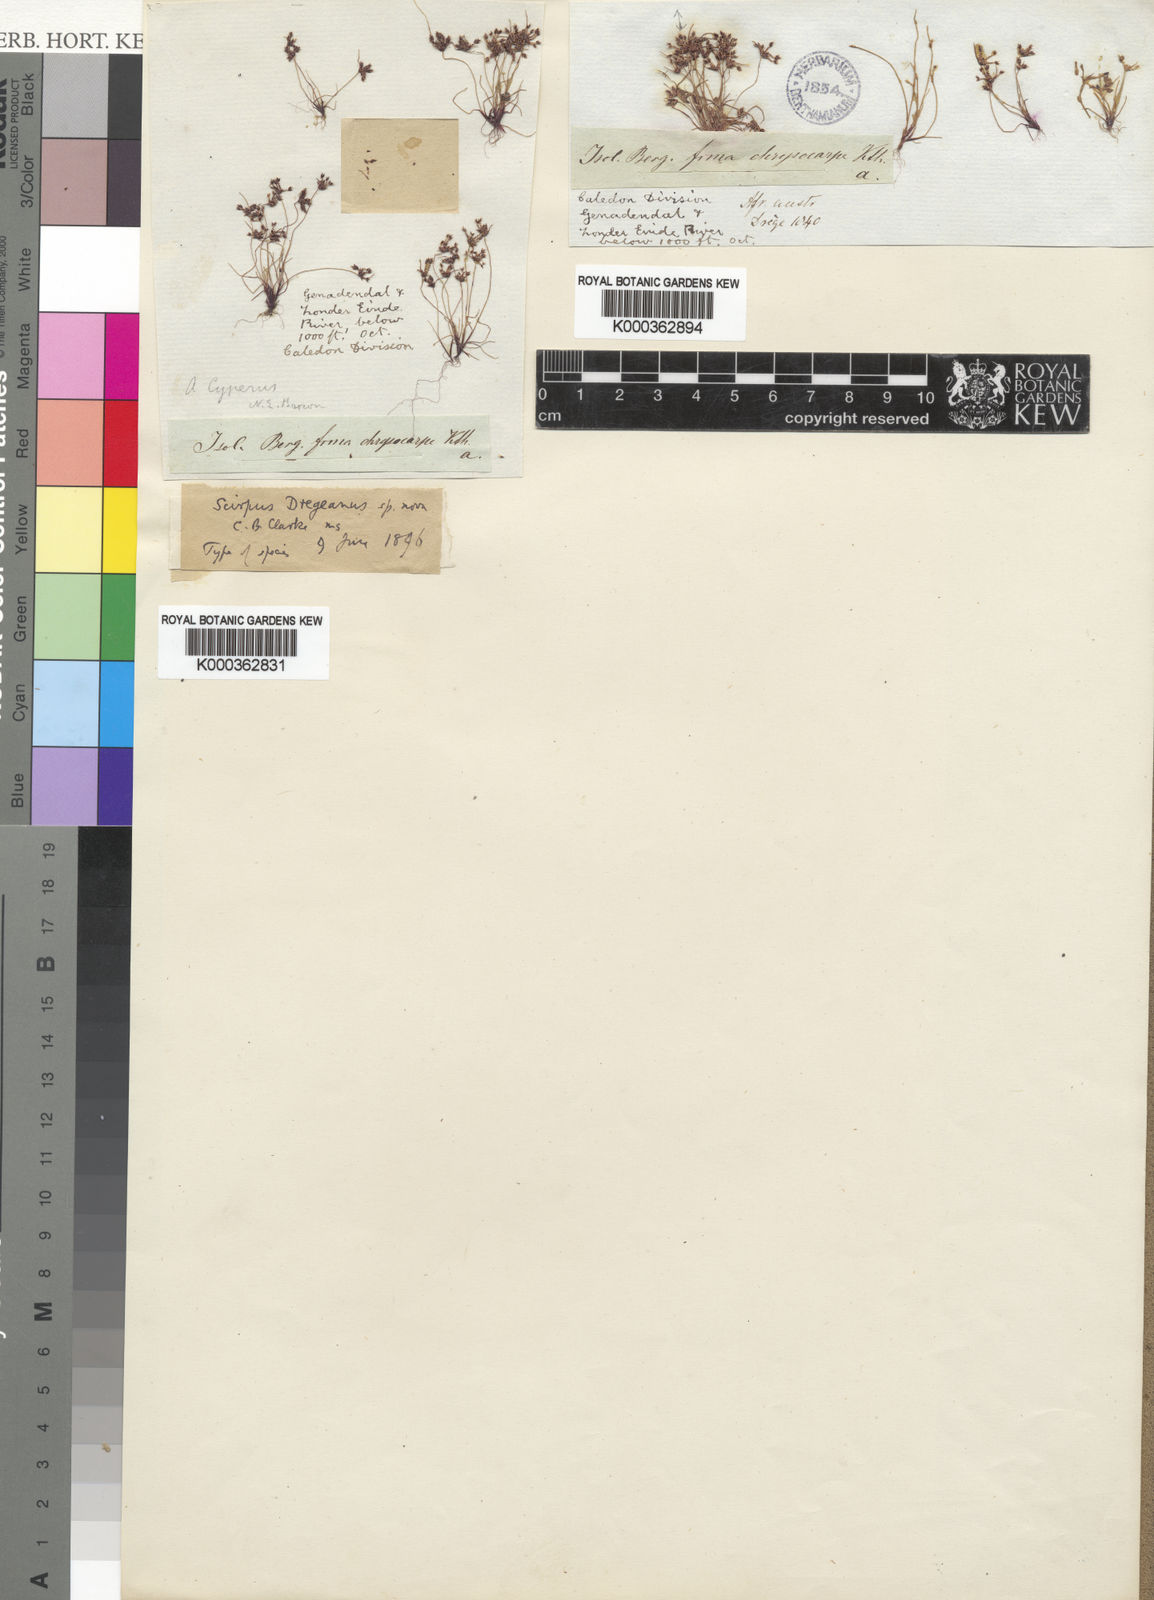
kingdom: Plantae
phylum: Tracheophyta
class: Liliopsida
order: Poales
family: Cyperaceae
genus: Cyperus
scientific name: Cyperus dregeanus
